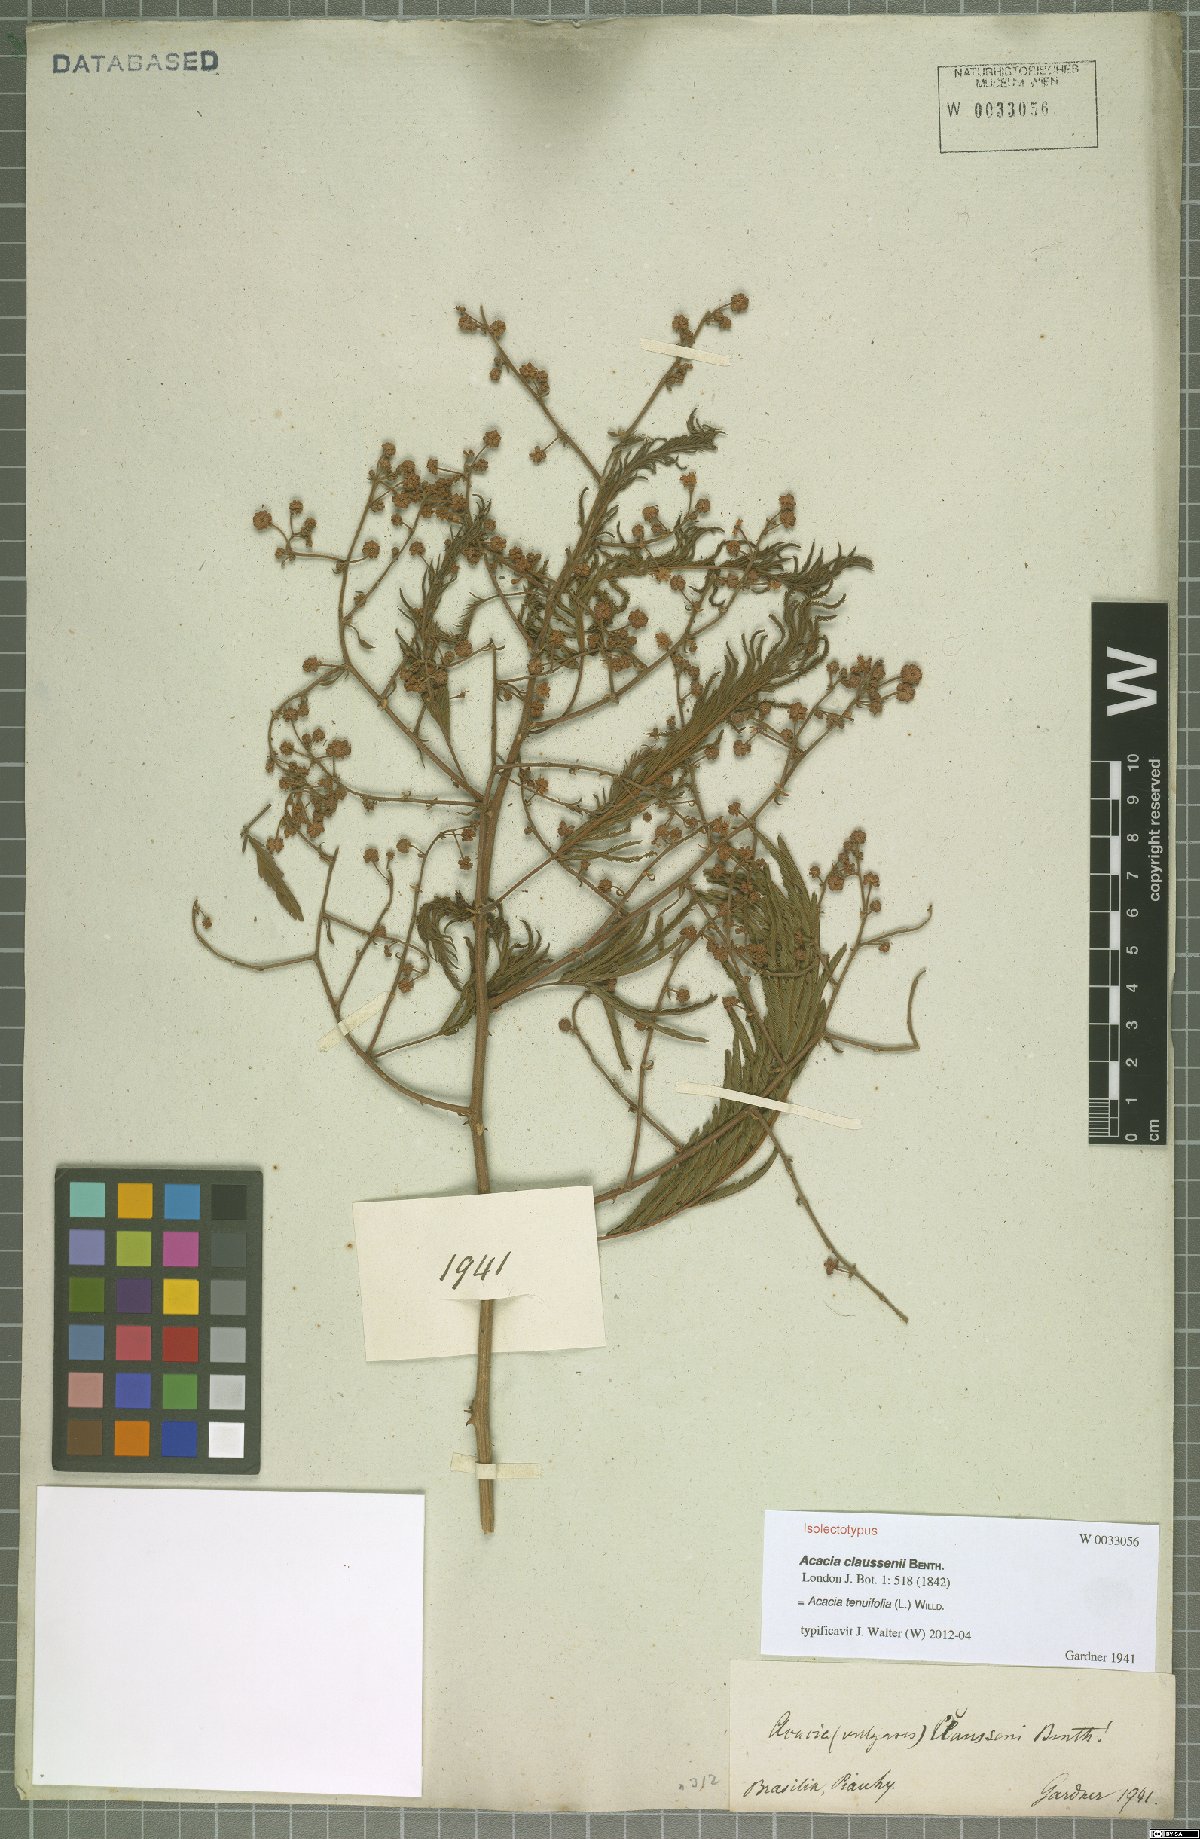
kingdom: Plantae
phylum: Tracheophyta
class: Magnoliopsida
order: Fabales
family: Fabaceae
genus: Senegalia
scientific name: Senegalia tenuifolia
